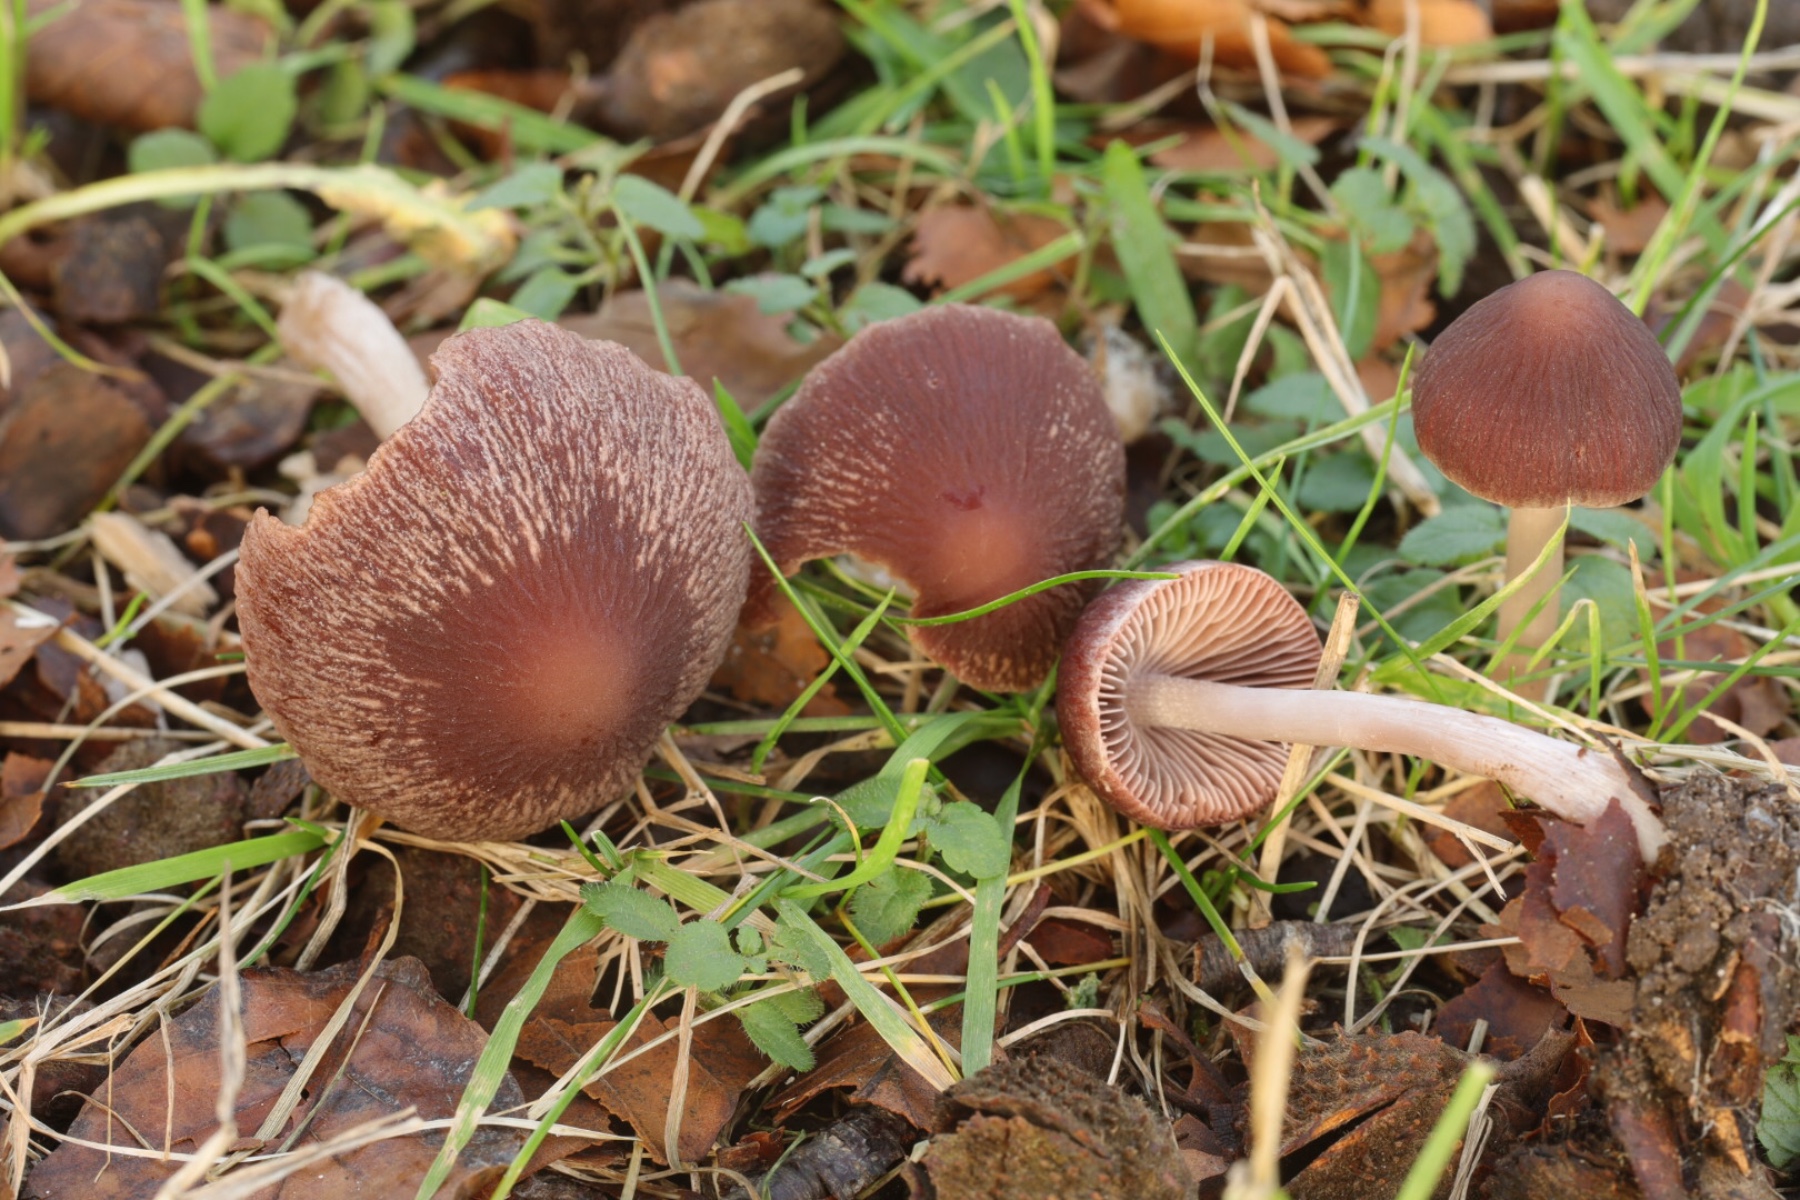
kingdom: Fungi
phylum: Basidiomycota
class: Agaricomycetes
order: Agaricales
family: Psathyrellaceae
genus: Psathyrella
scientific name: Psathyrella bipellis
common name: vinrød mørkhat
